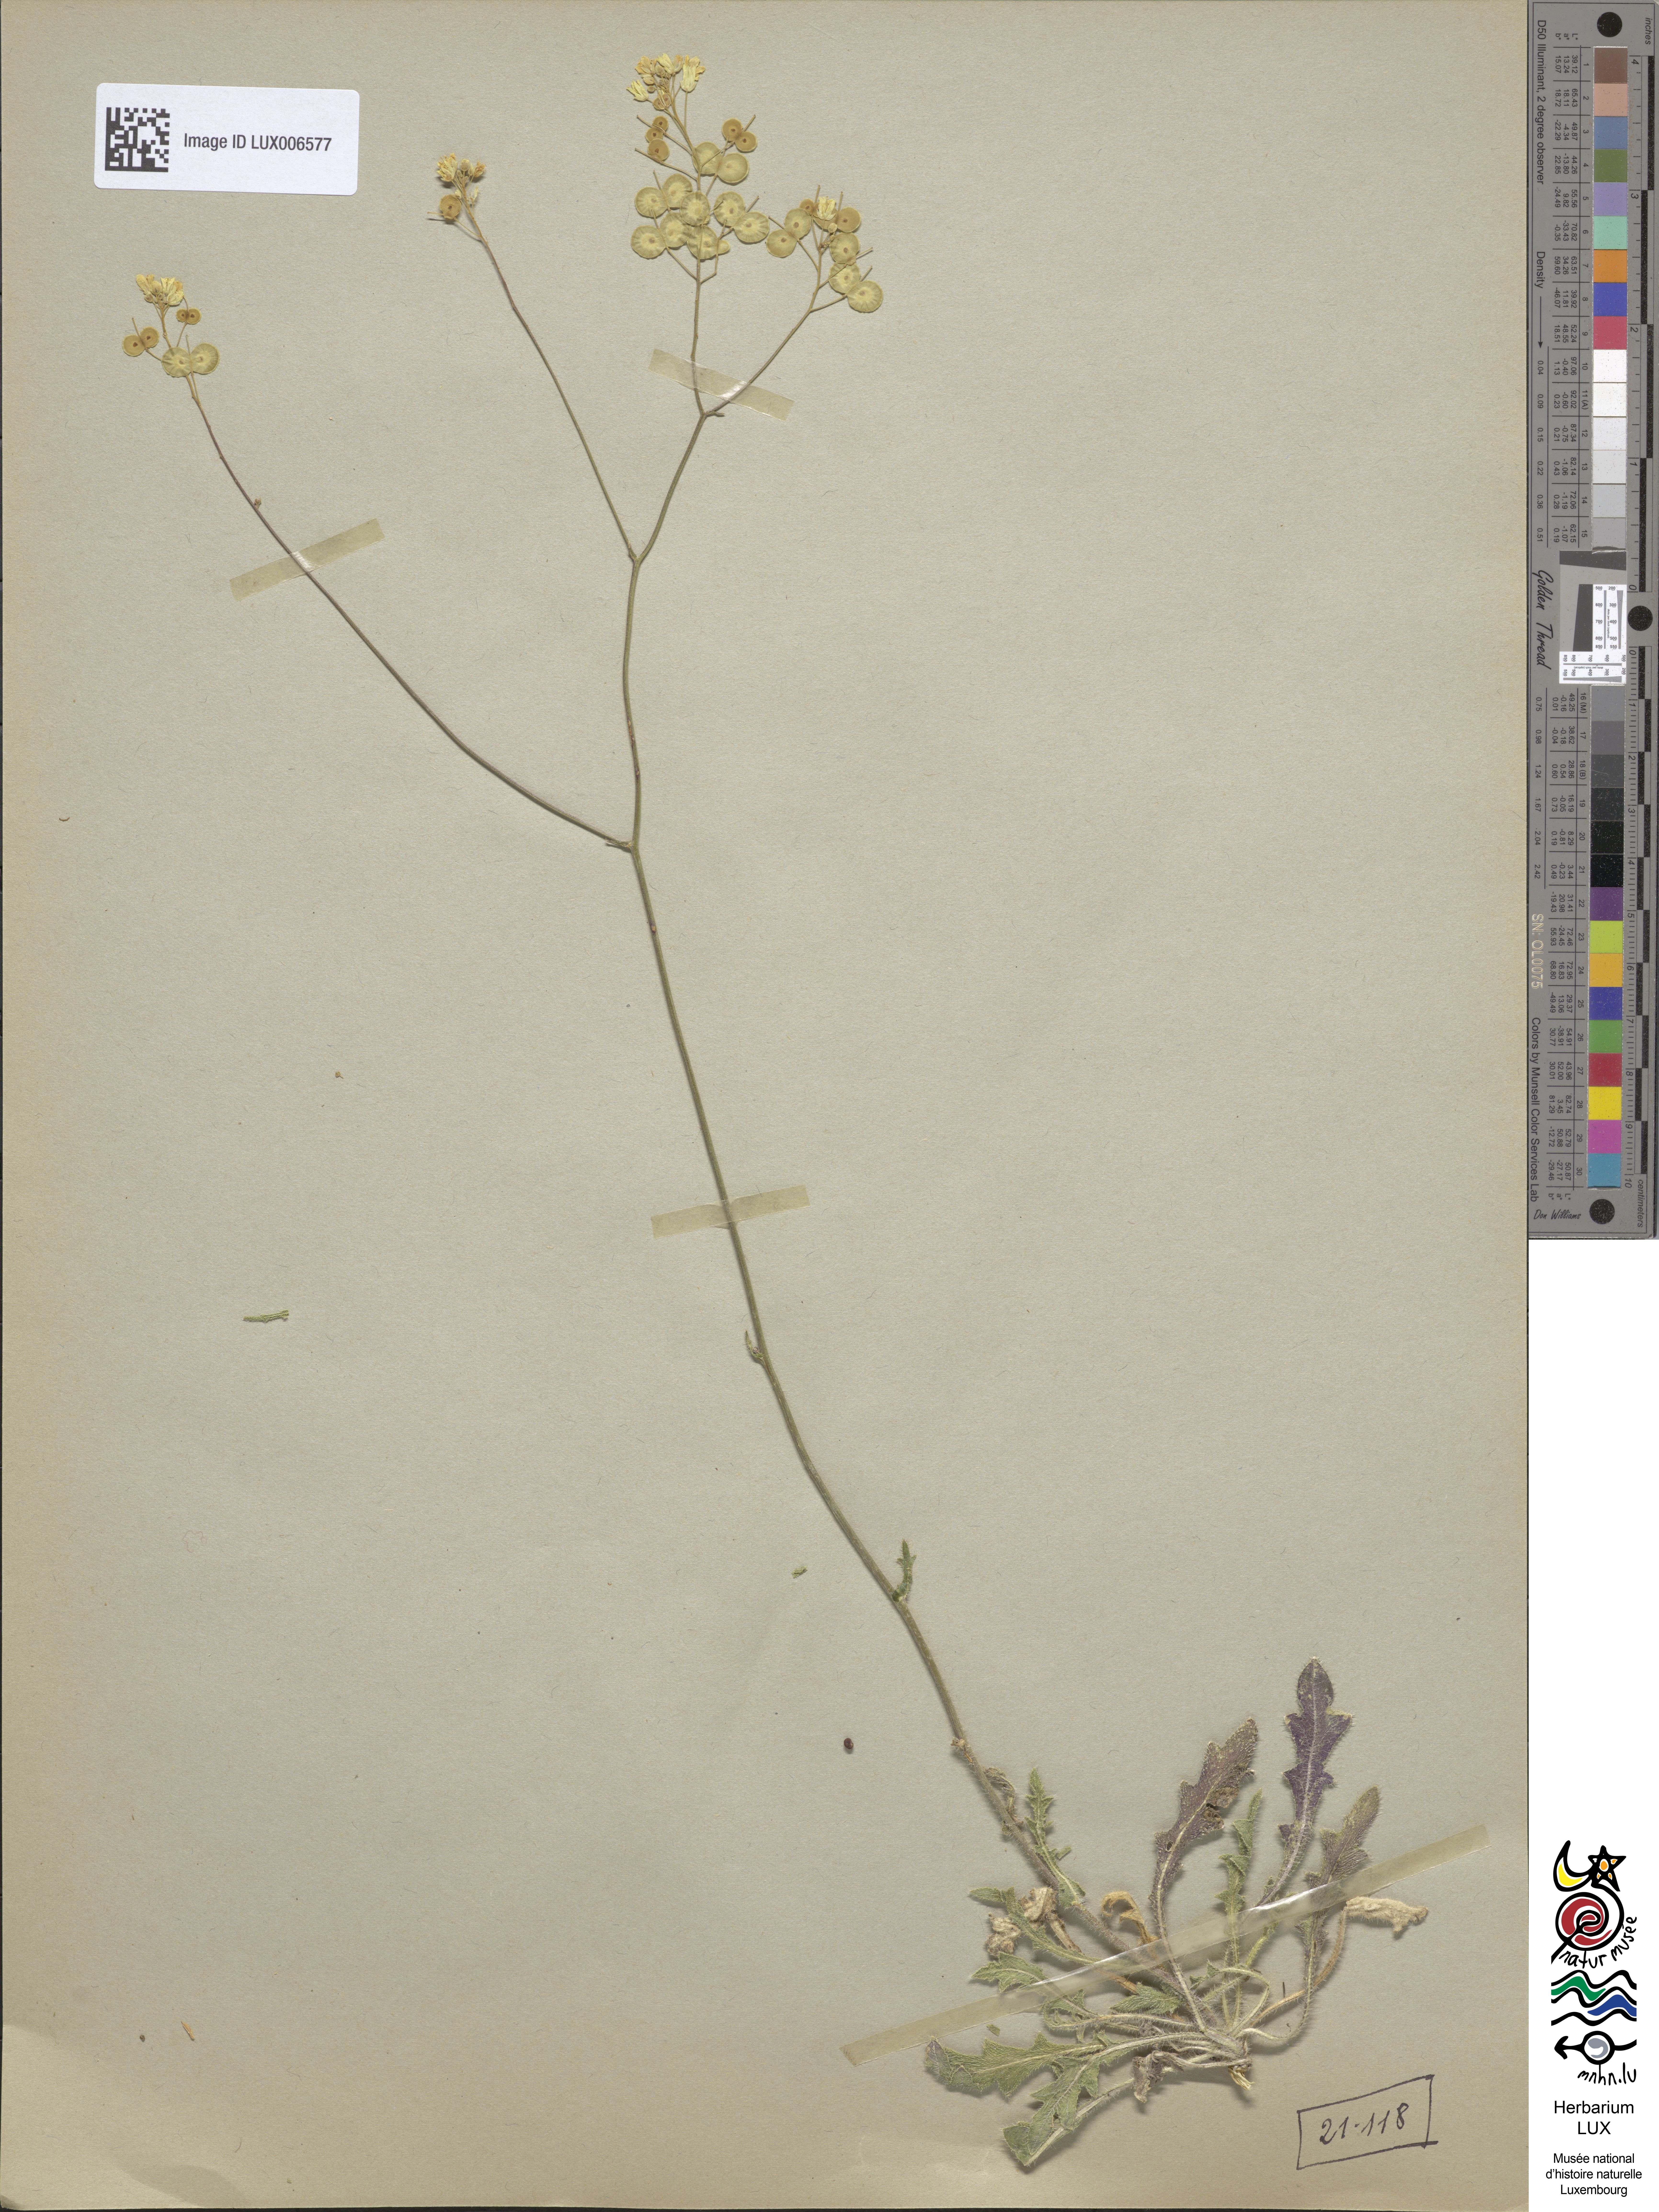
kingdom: Plantae
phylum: Tracheophyta
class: Magnoliopsida
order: Brassicales
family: Brassicaceae
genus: Biscutella
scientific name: Biscutella coronopifolia
